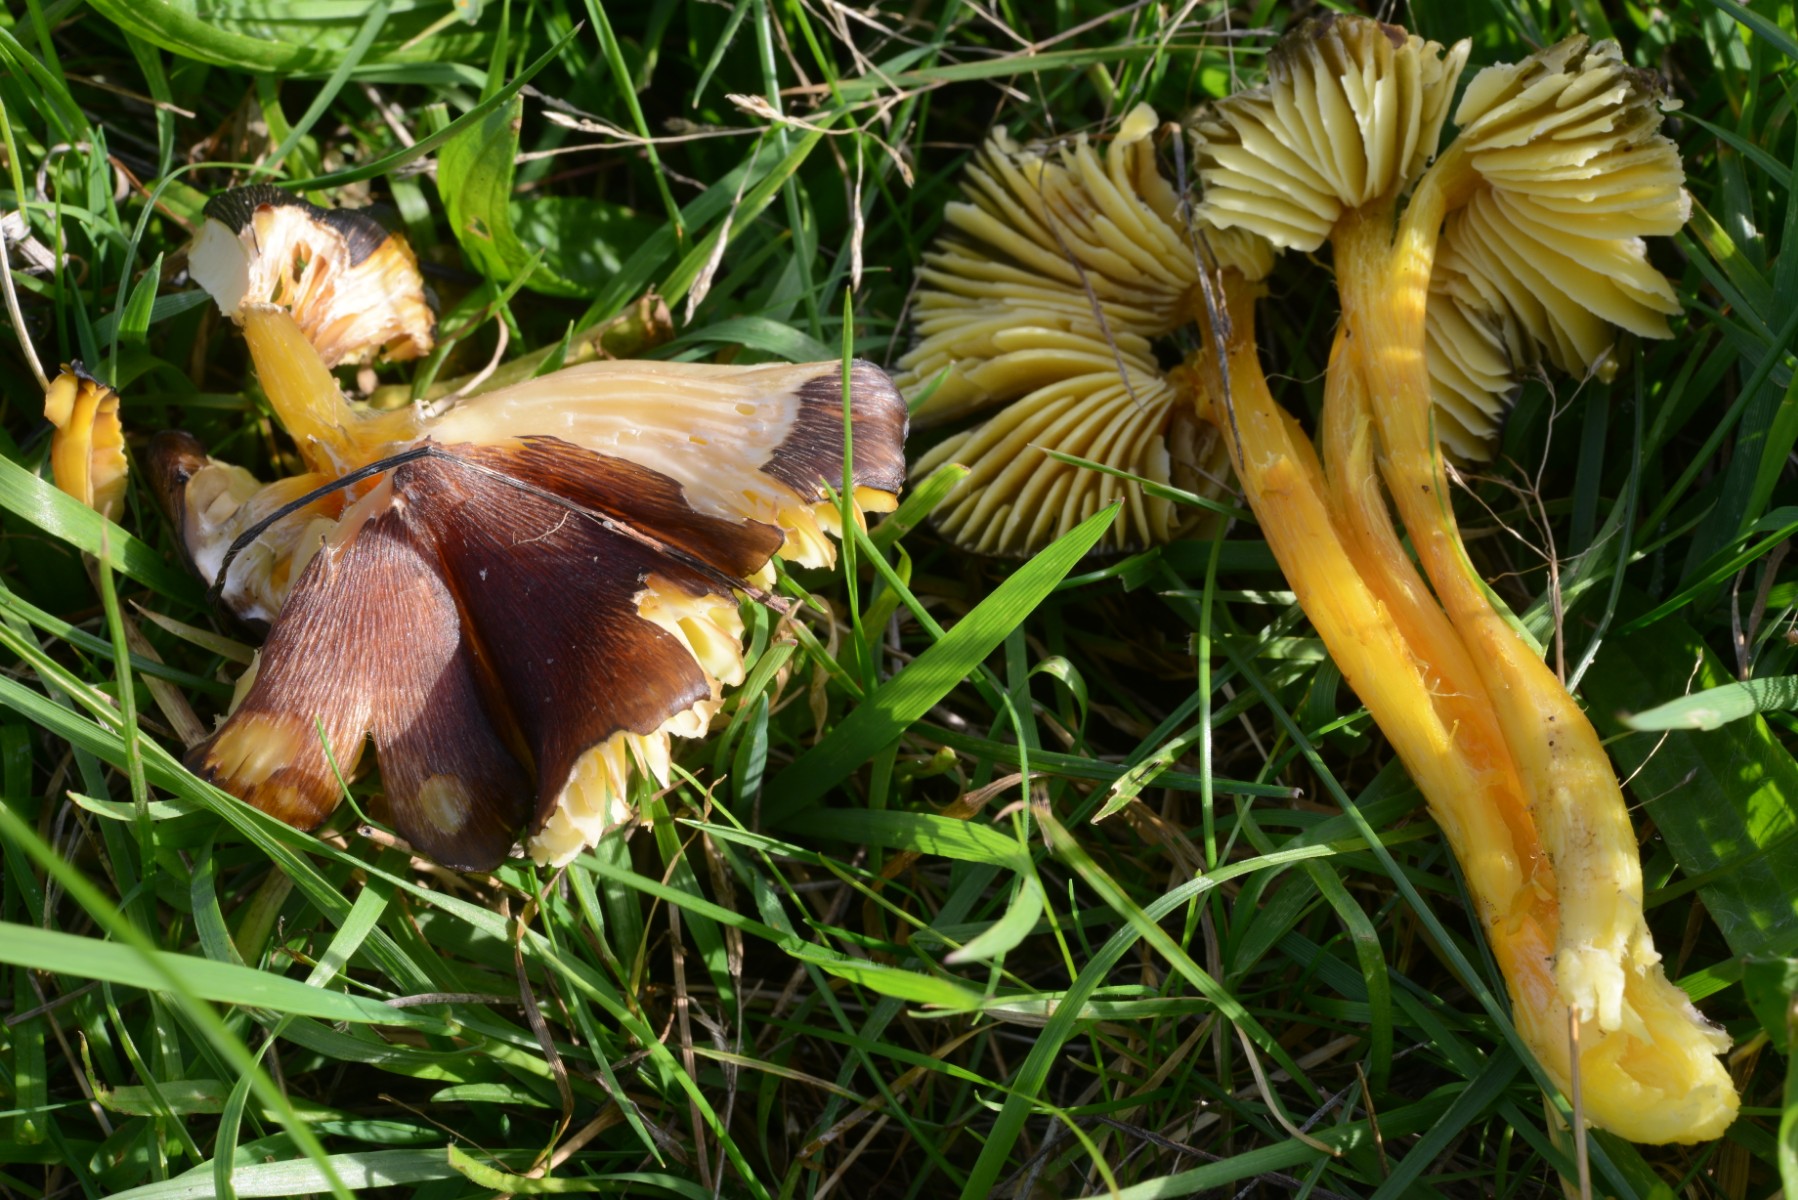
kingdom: Fungi
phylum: Basidiomycota
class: Agaricomycetes
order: Agaricales
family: Hygrophoraceae
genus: Hygrocybe
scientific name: Hygrocybe spadicea
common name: daddelbrun vokshat
